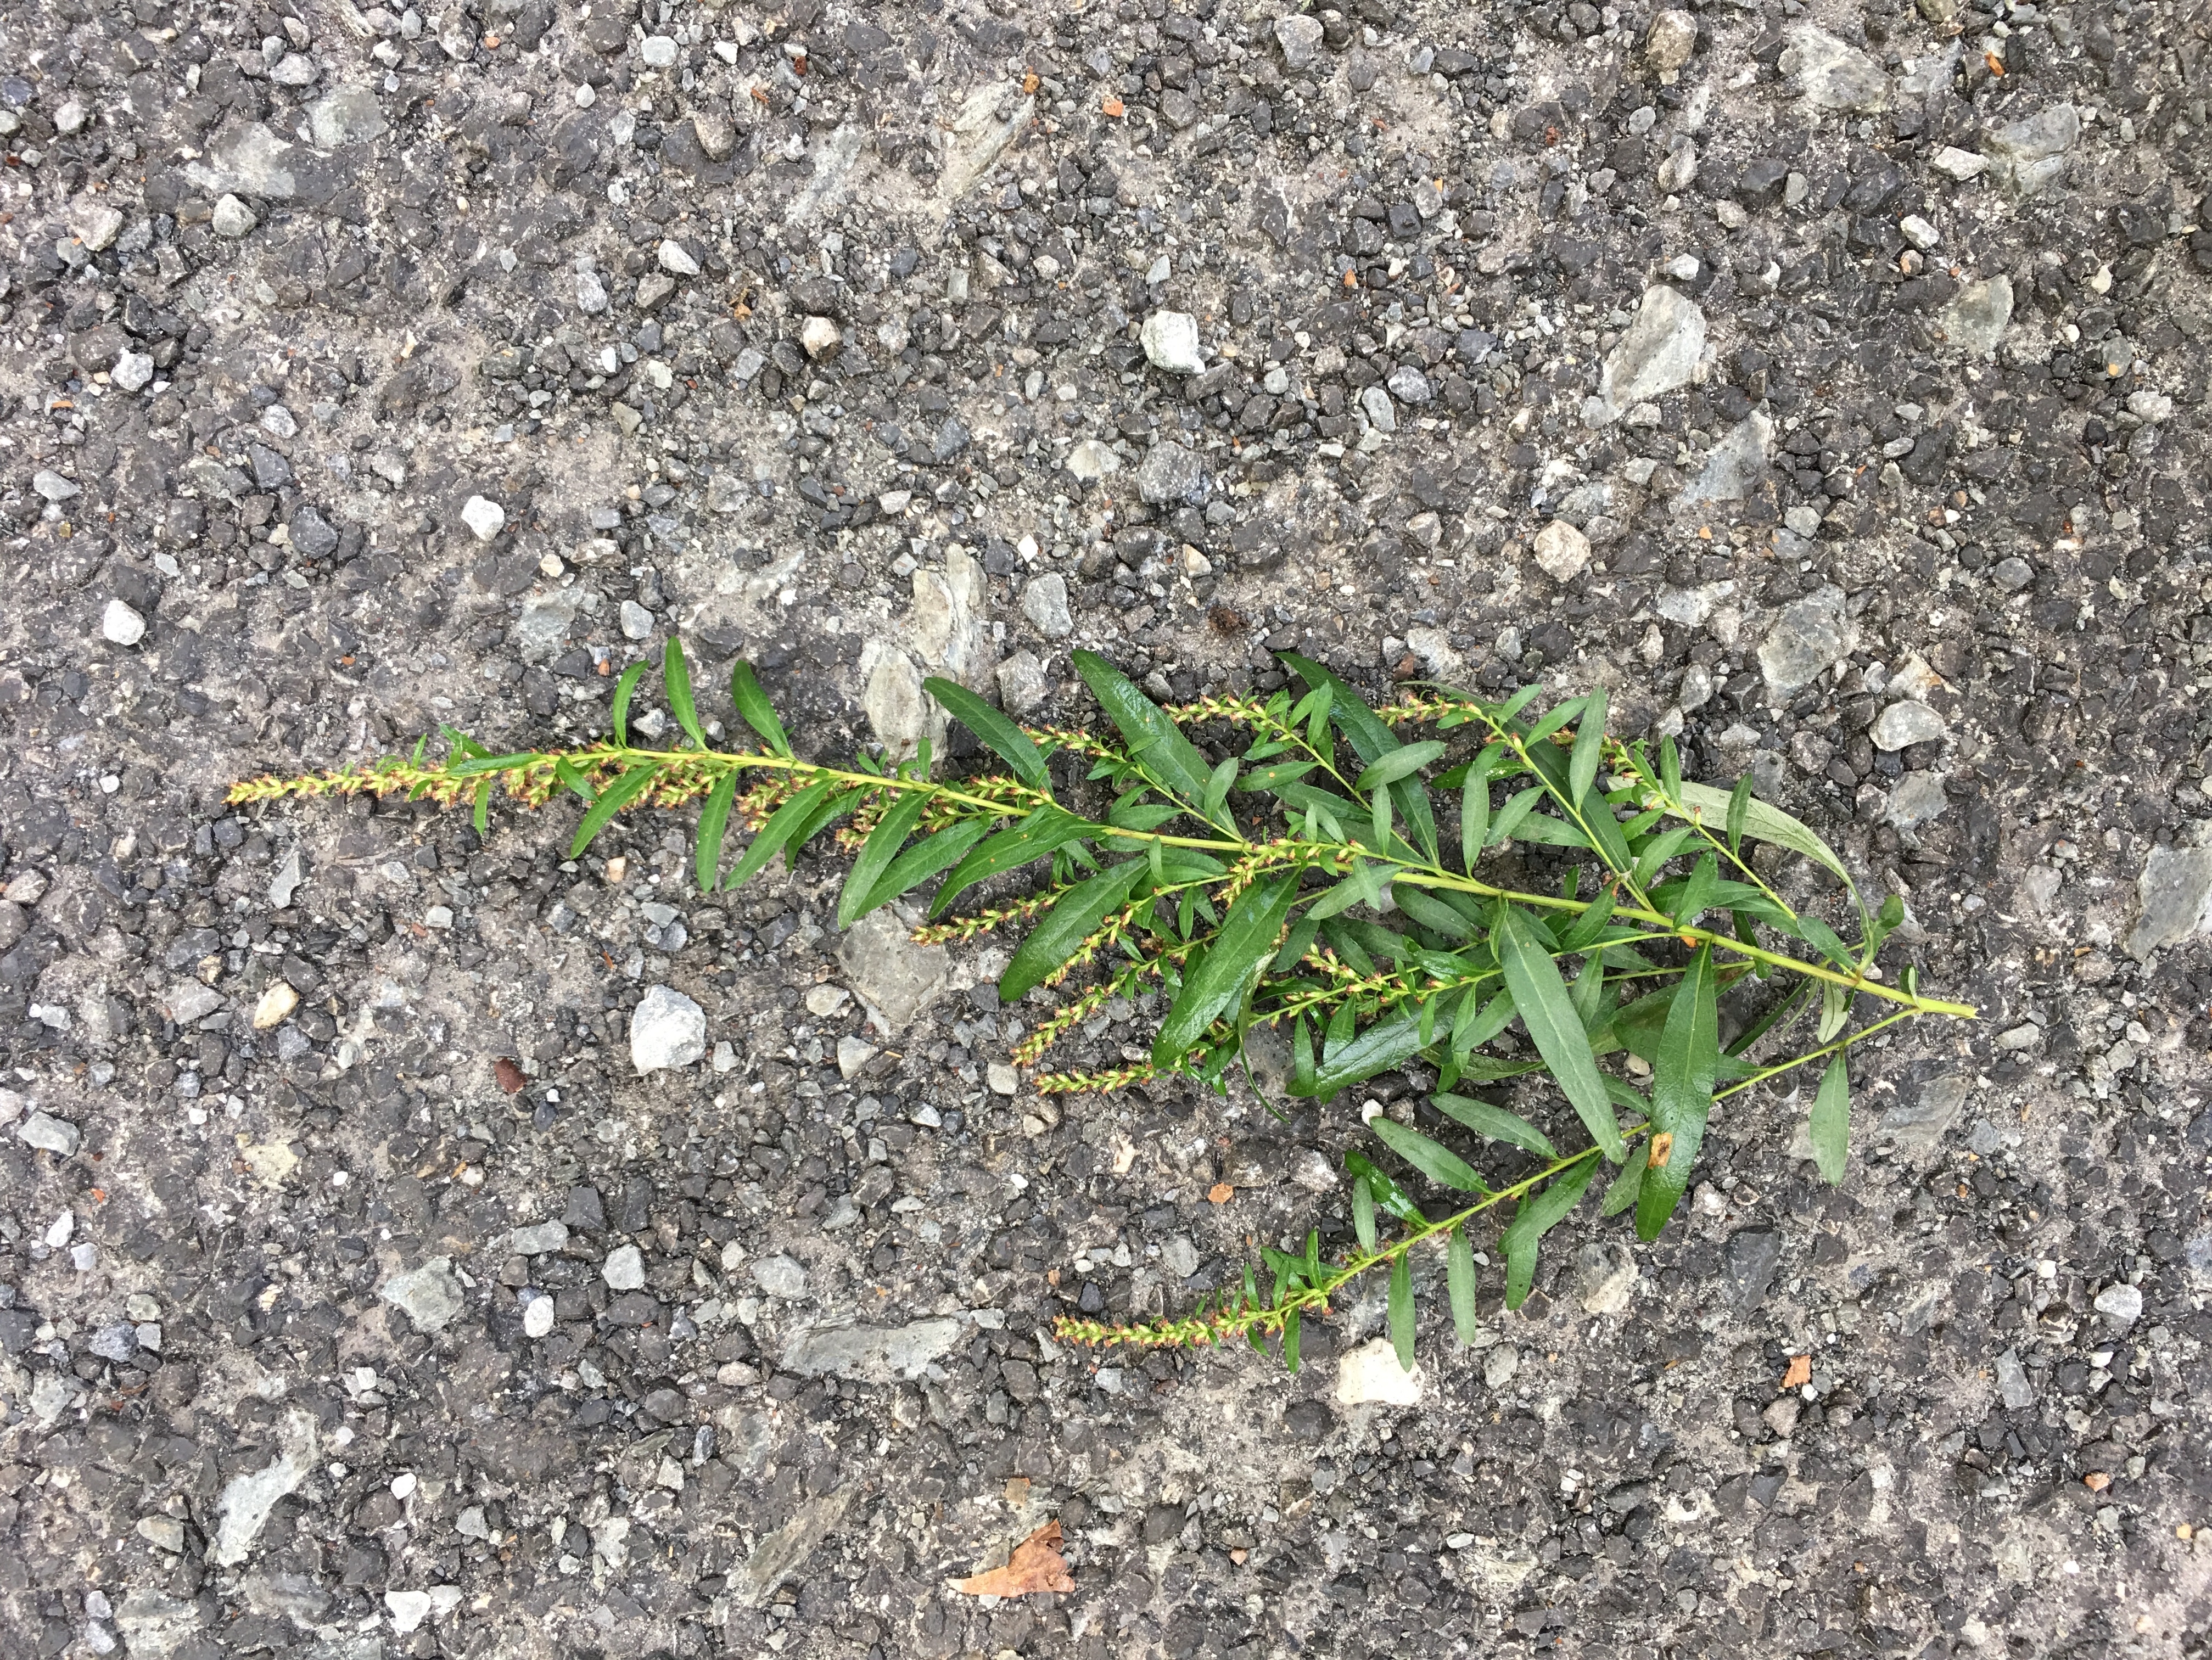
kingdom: Plantae
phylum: Tracheophyta
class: Magnoliopsida
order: Asterales
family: Asteraceae
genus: Artemisia
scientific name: Artemisia vulgaris
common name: Common Mugwort
